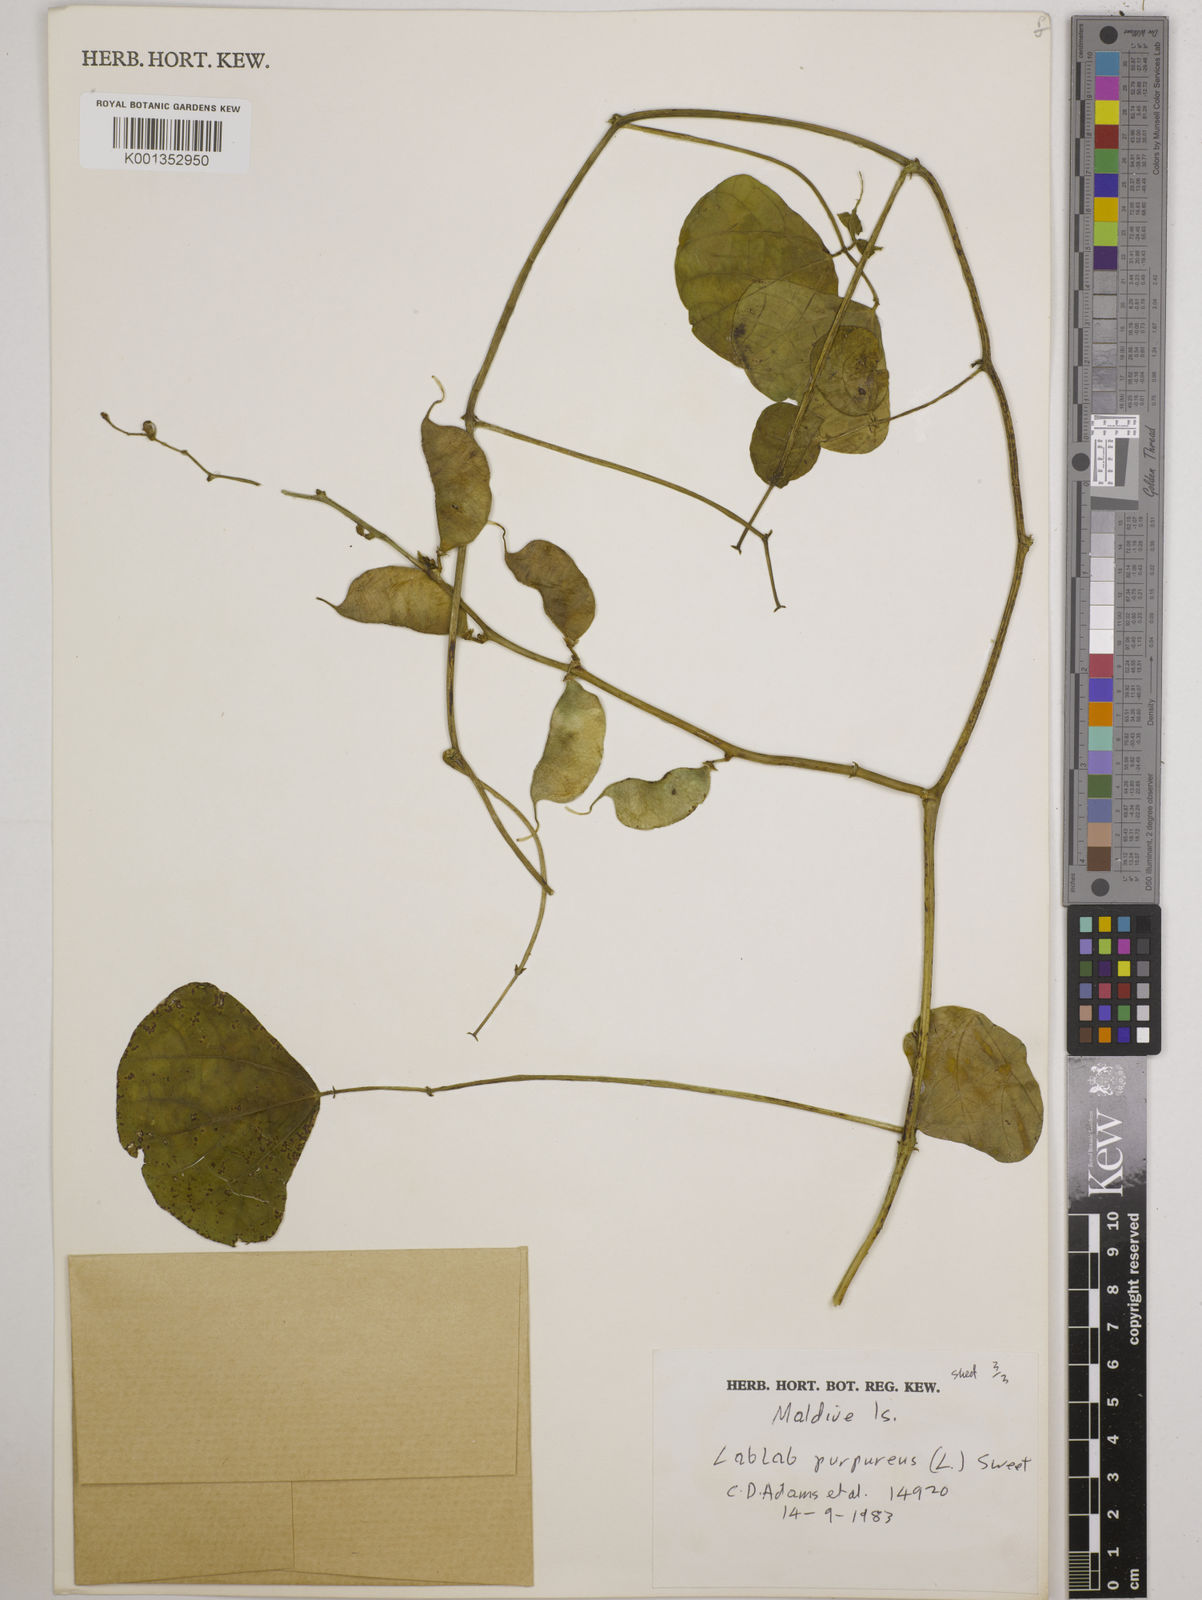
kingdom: Plantae
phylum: Tracheophyta
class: Magnoliopsida
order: Fabales
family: Fabaceae
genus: Lablab
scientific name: Lablab purpureus
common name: Lablab-bean
